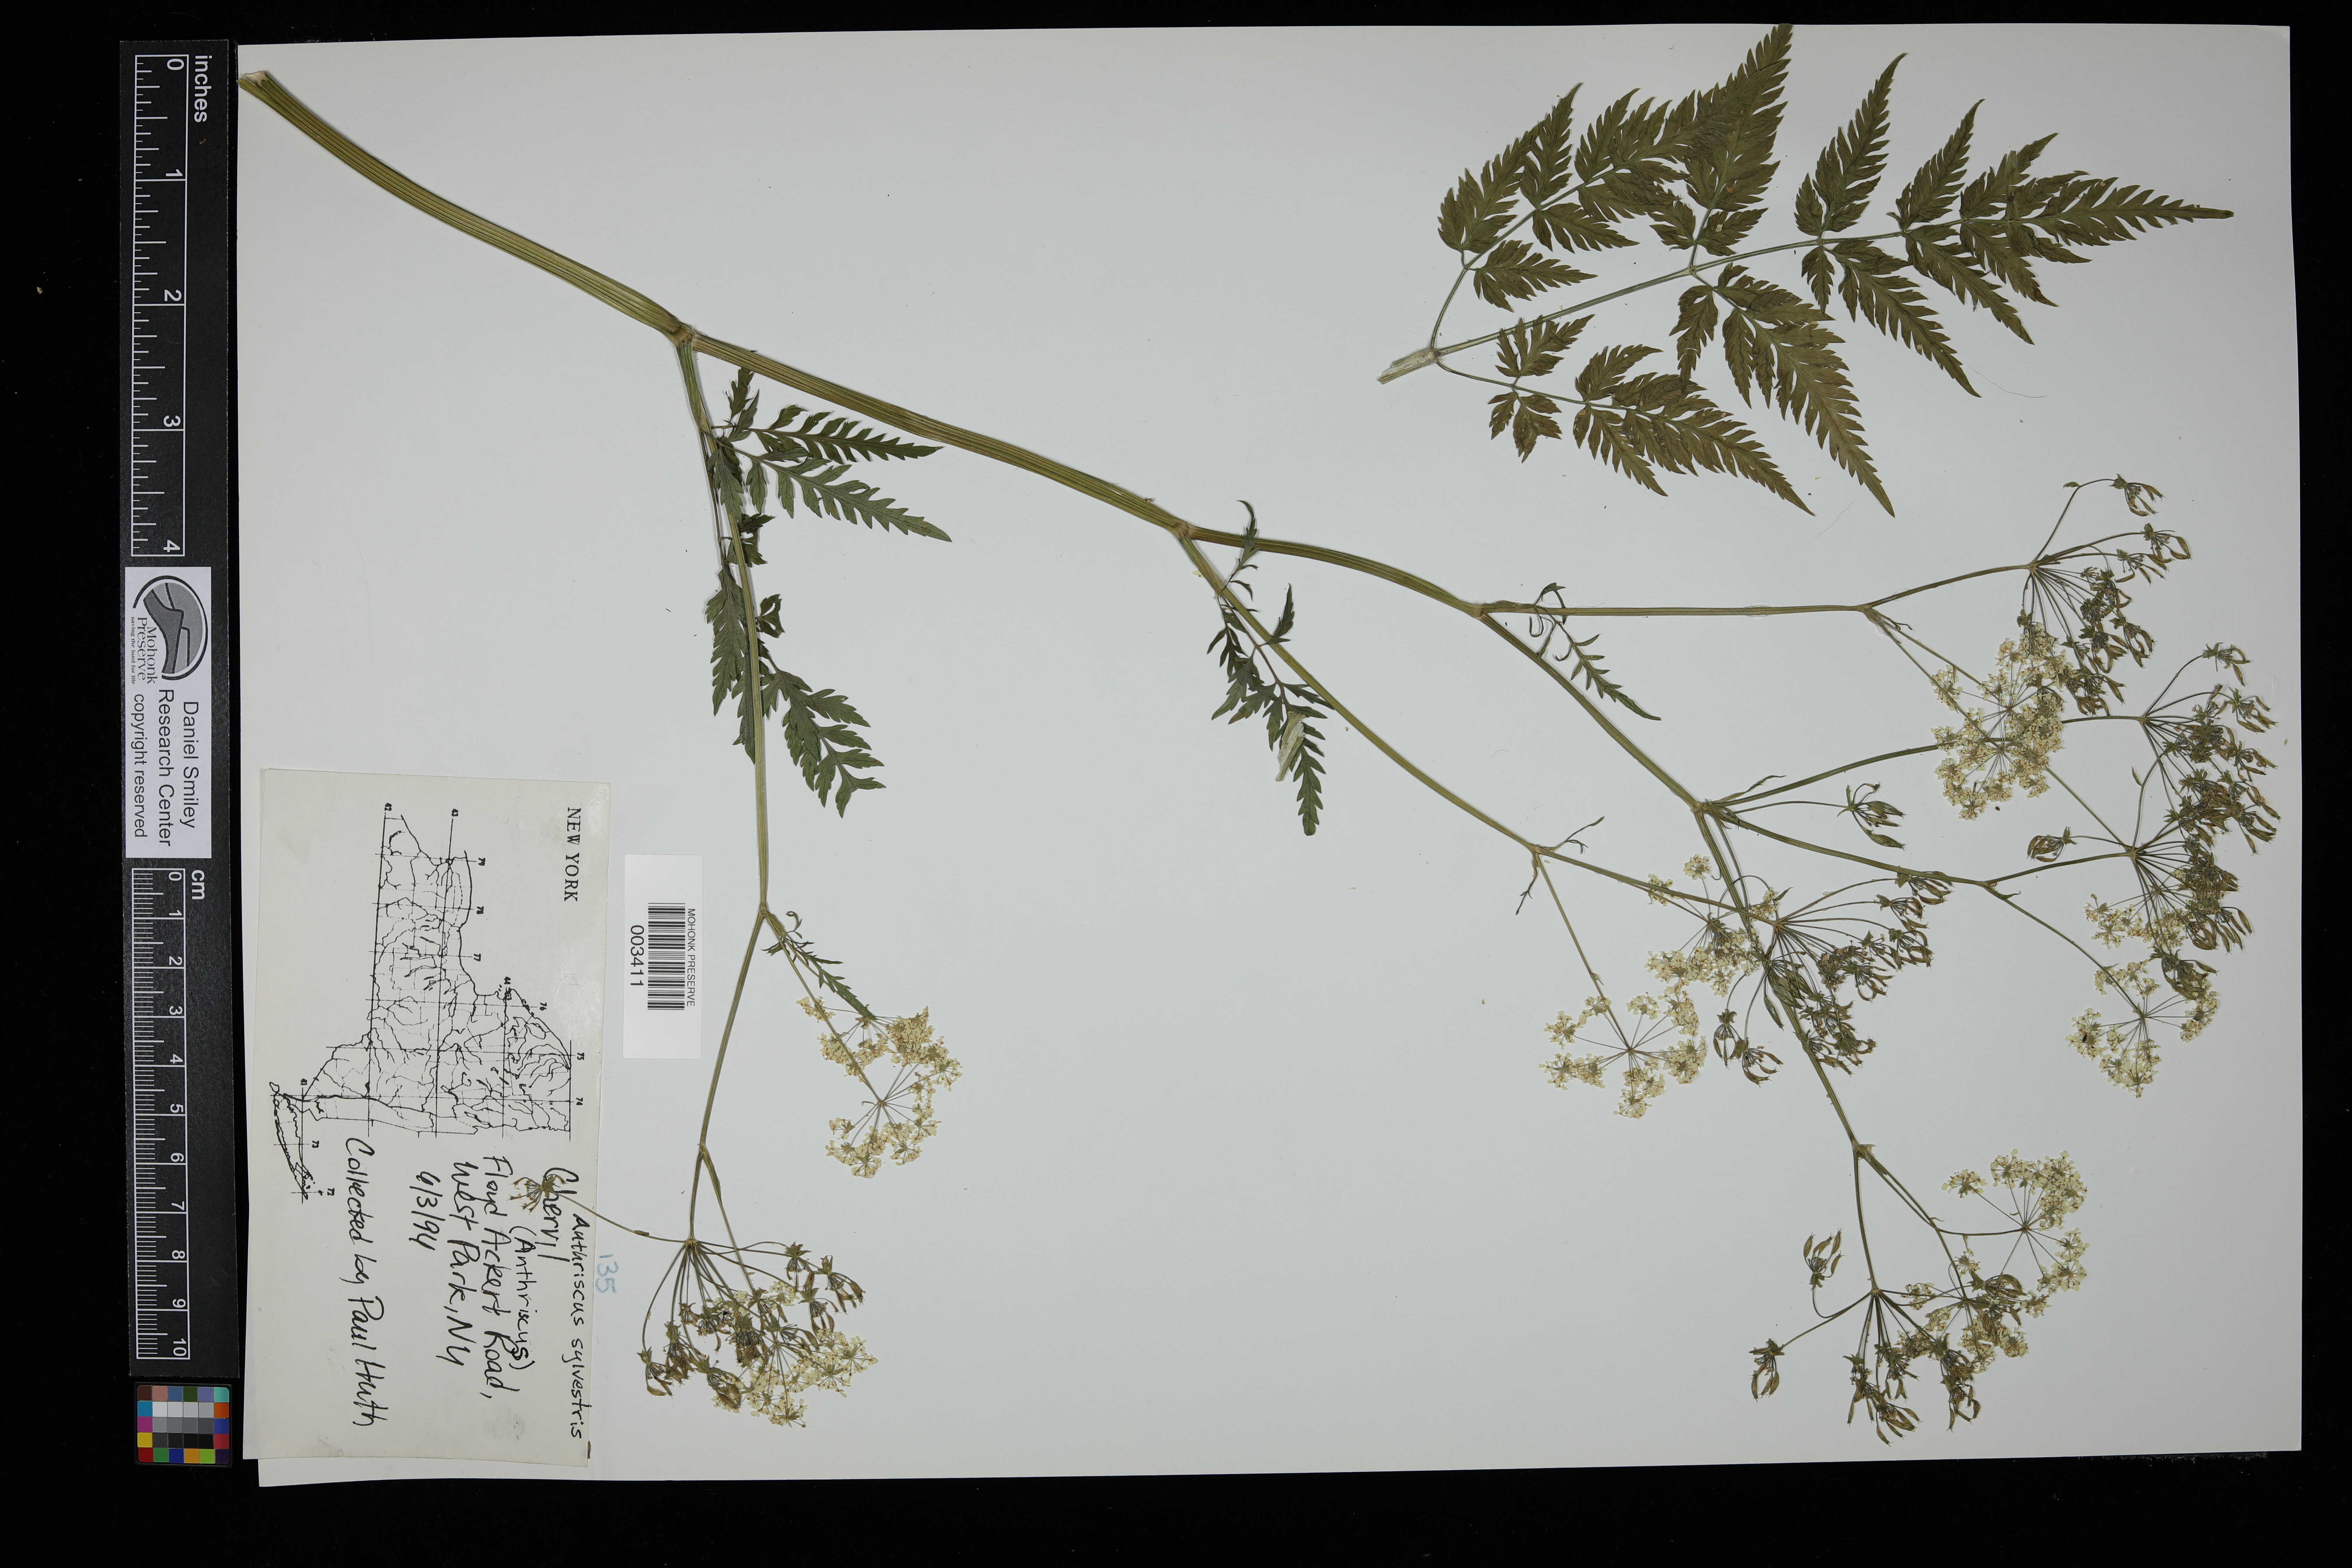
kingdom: Plantae
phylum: Tracheophyta
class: Magnoliopsida
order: Apiales
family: Apiaceae
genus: Anthriscus
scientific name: Anthriscus sylvestris
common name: Cow parsley
